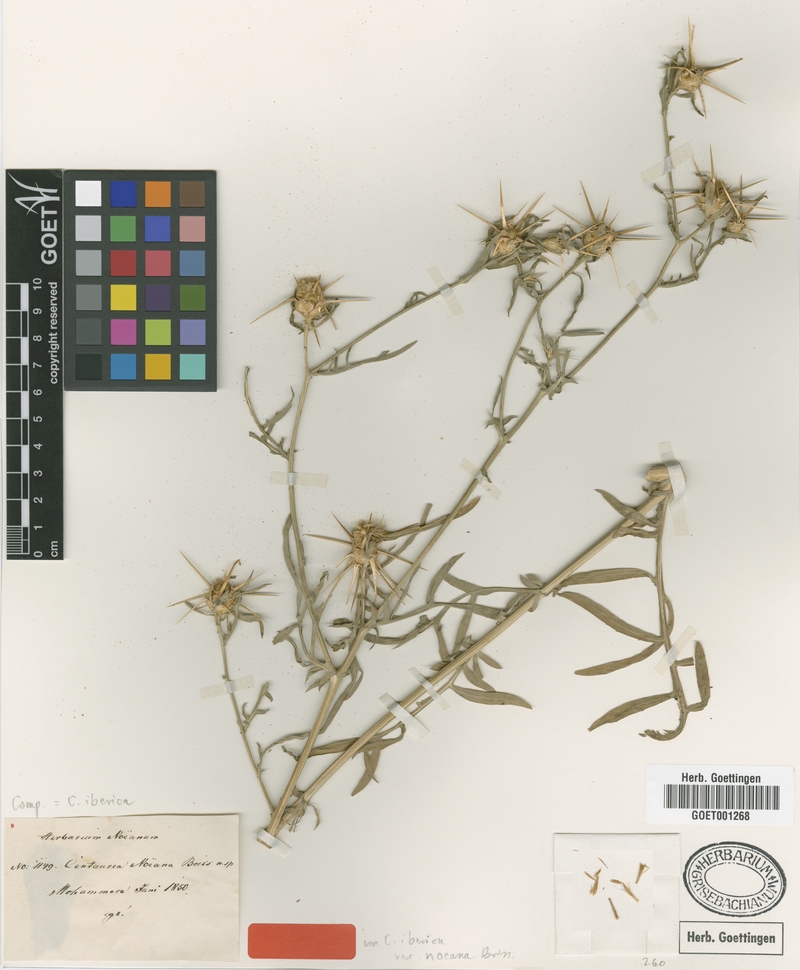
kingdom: Plantae
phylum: Tracheophyta
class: Magnoliopsida
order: Asterales
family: Asteraceae
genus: Centaurea
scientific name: Centaurea iberica
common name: Iberian knapweed
